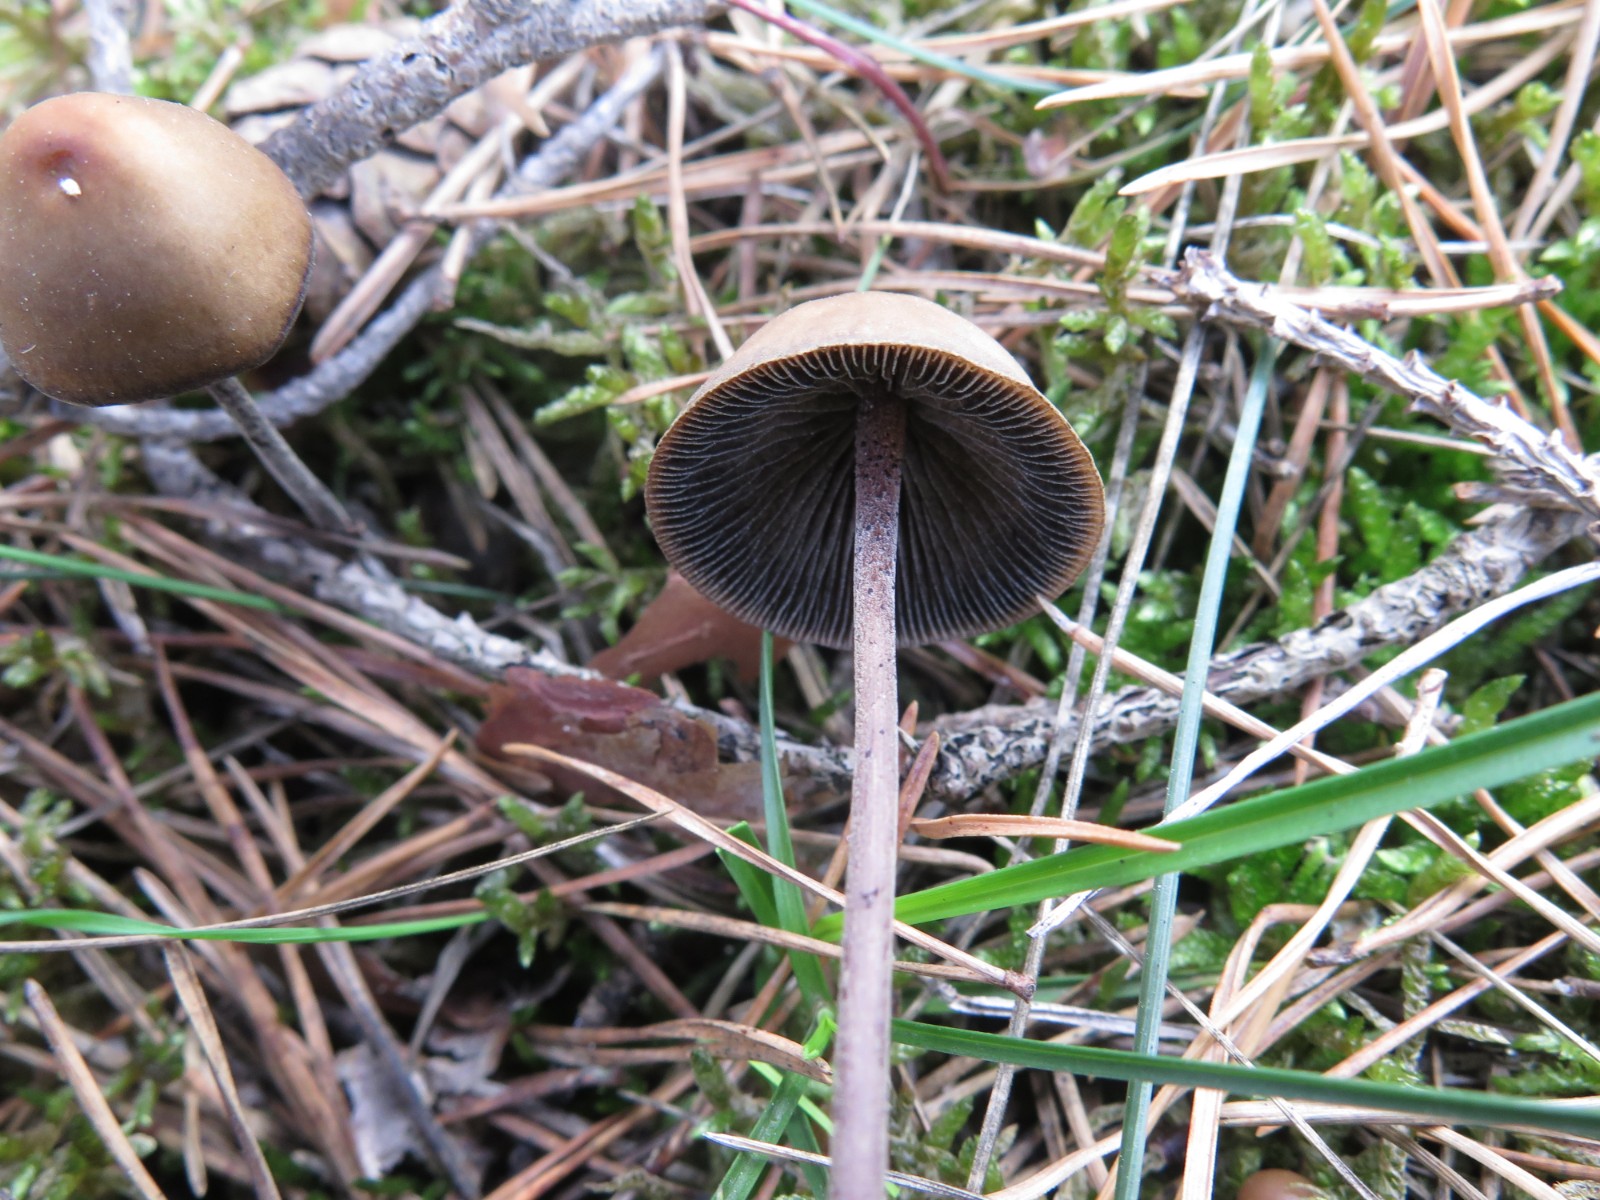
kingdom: Fungi
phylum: Basidiomycota
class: Agaricomycetes
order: Agaricales
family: Bolbitiaceae
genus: Panaeolus
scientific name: Panaeolus acuminatus
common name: høj glanshat
